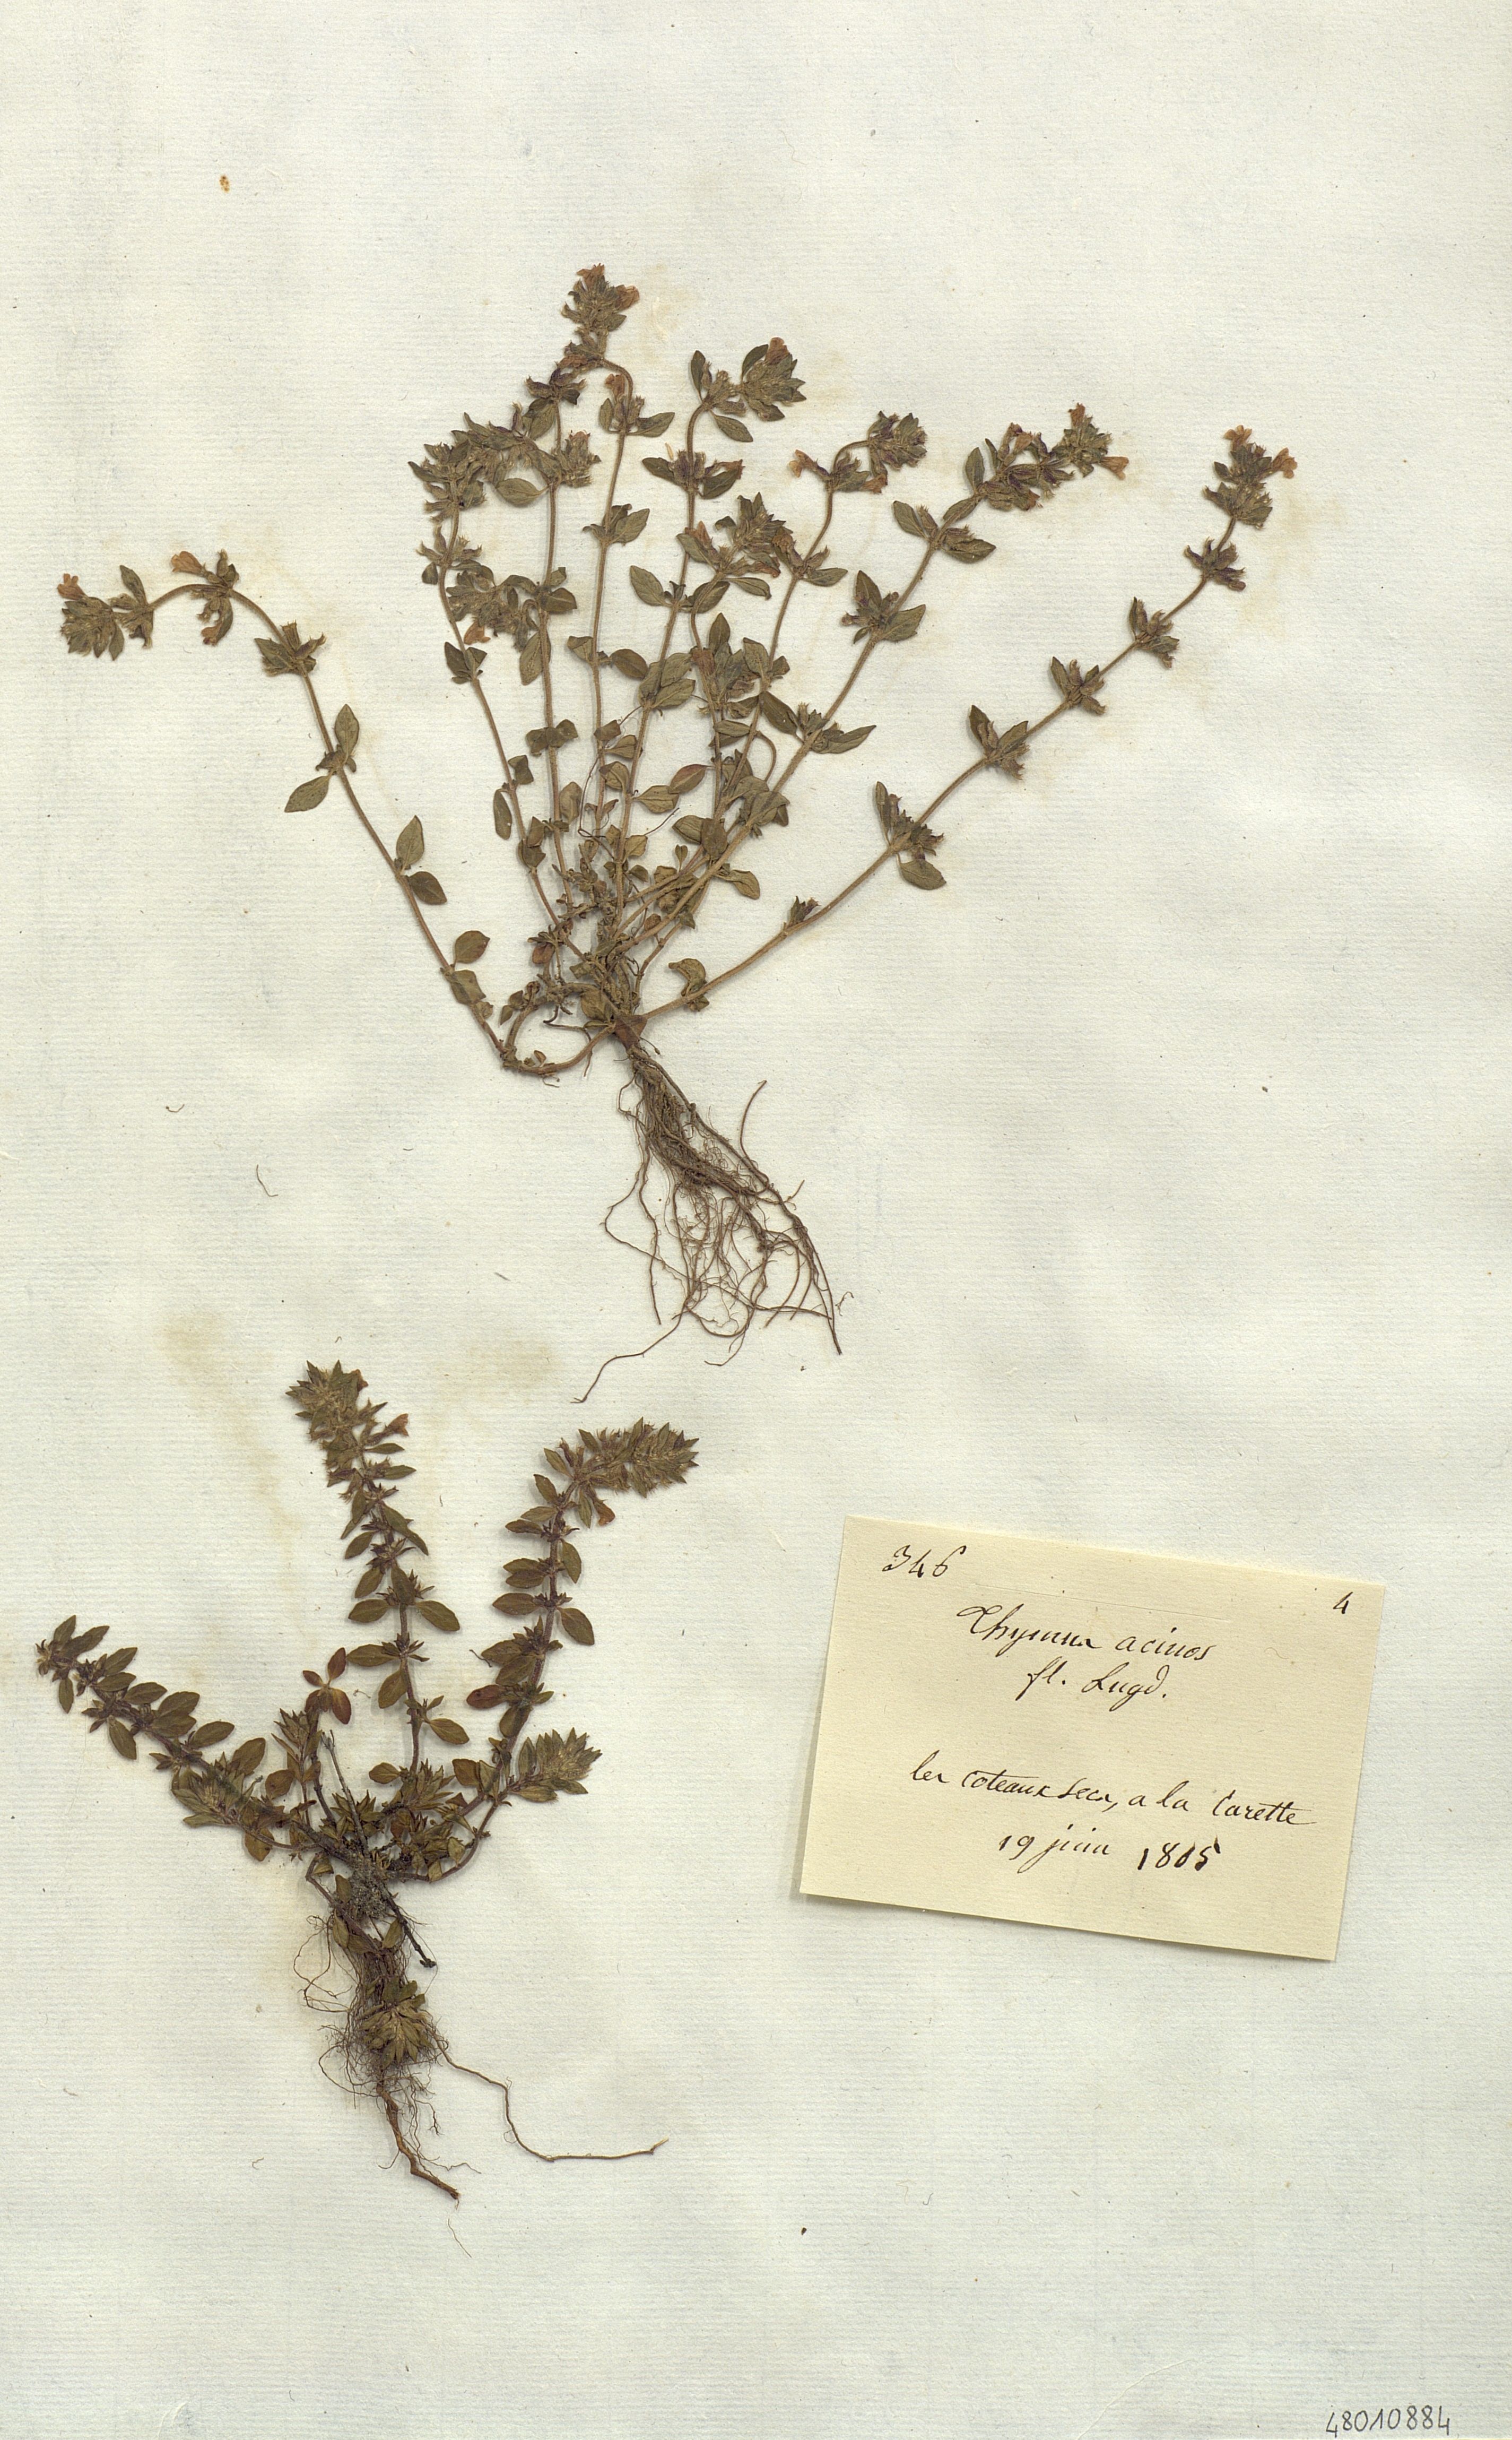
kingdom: Plantae
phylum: Tracheophyta
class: Magnoliopsida
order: Lamiales
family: Lamiaceae
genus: Thymus
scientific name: Thymus acinos
